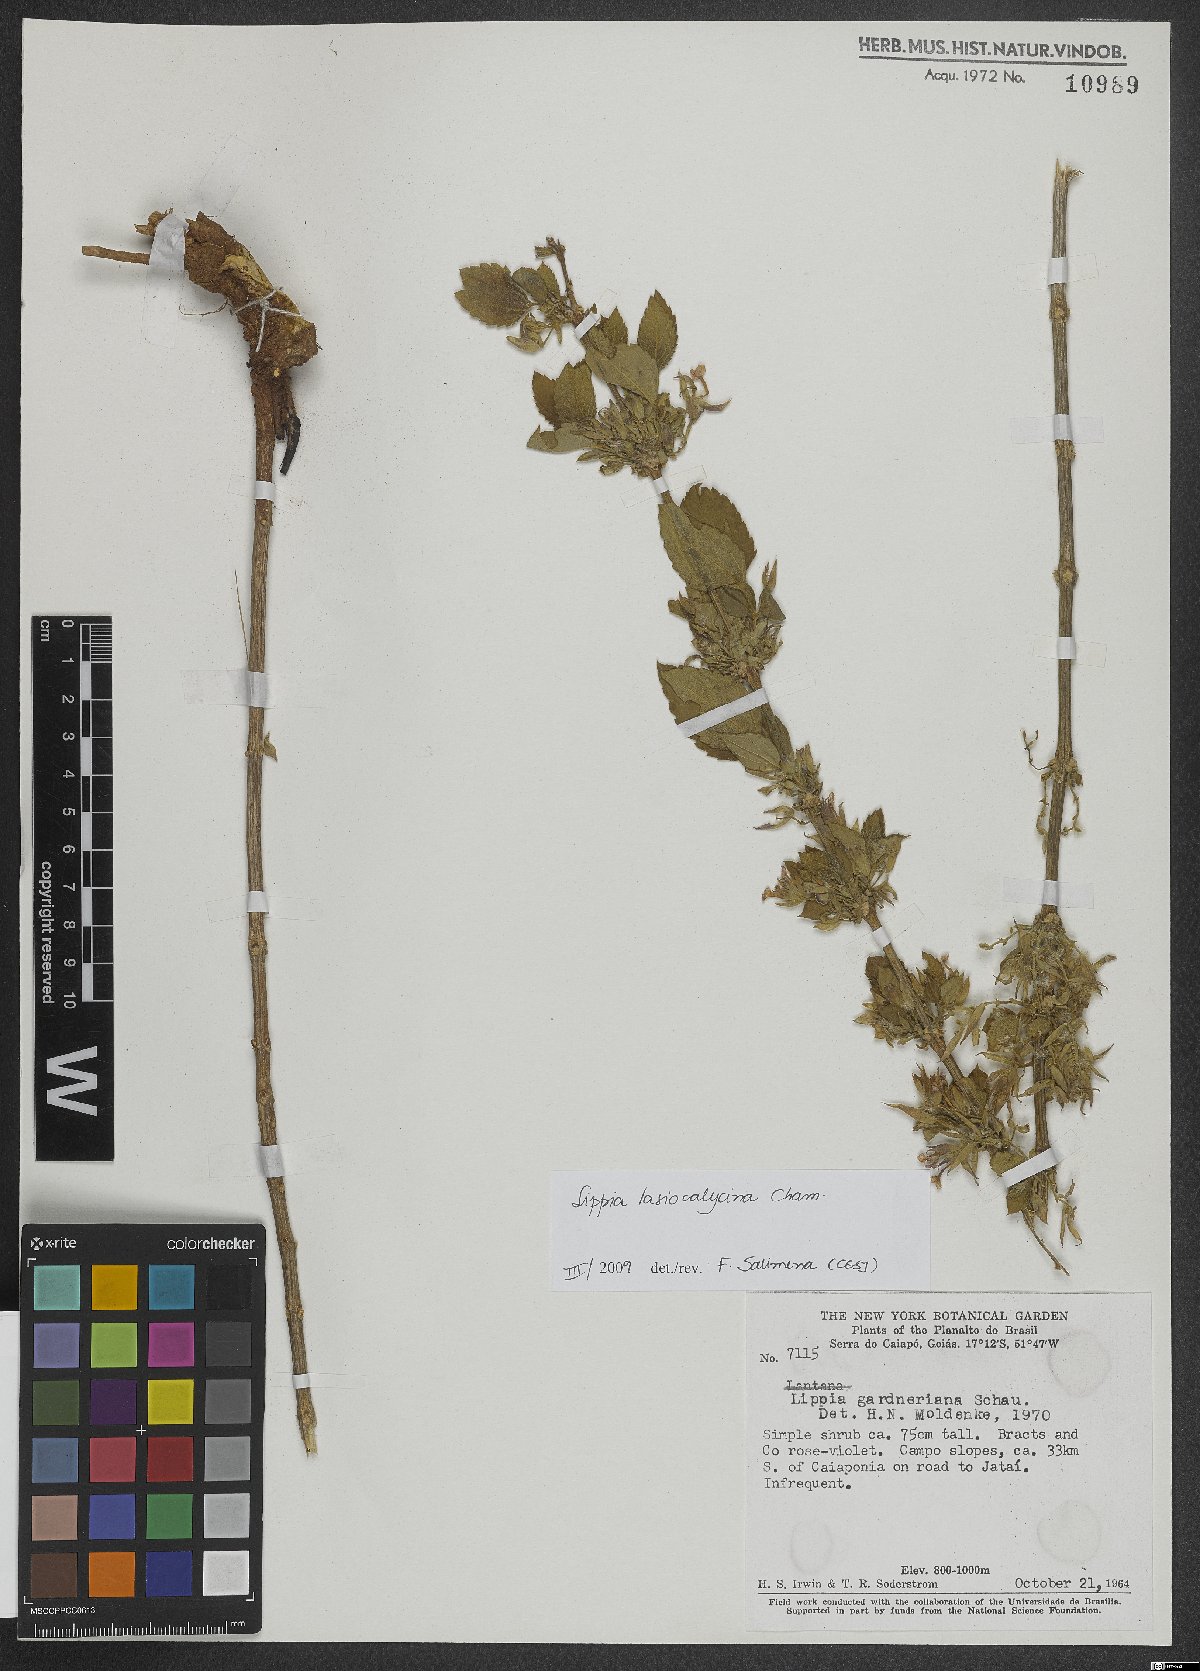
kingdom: Plantae
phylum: Tracheophyta
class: Magnoliopsida
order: Lamiales
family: Verbenaceae
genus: Lippia
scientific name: Lippia lasiocalycina
